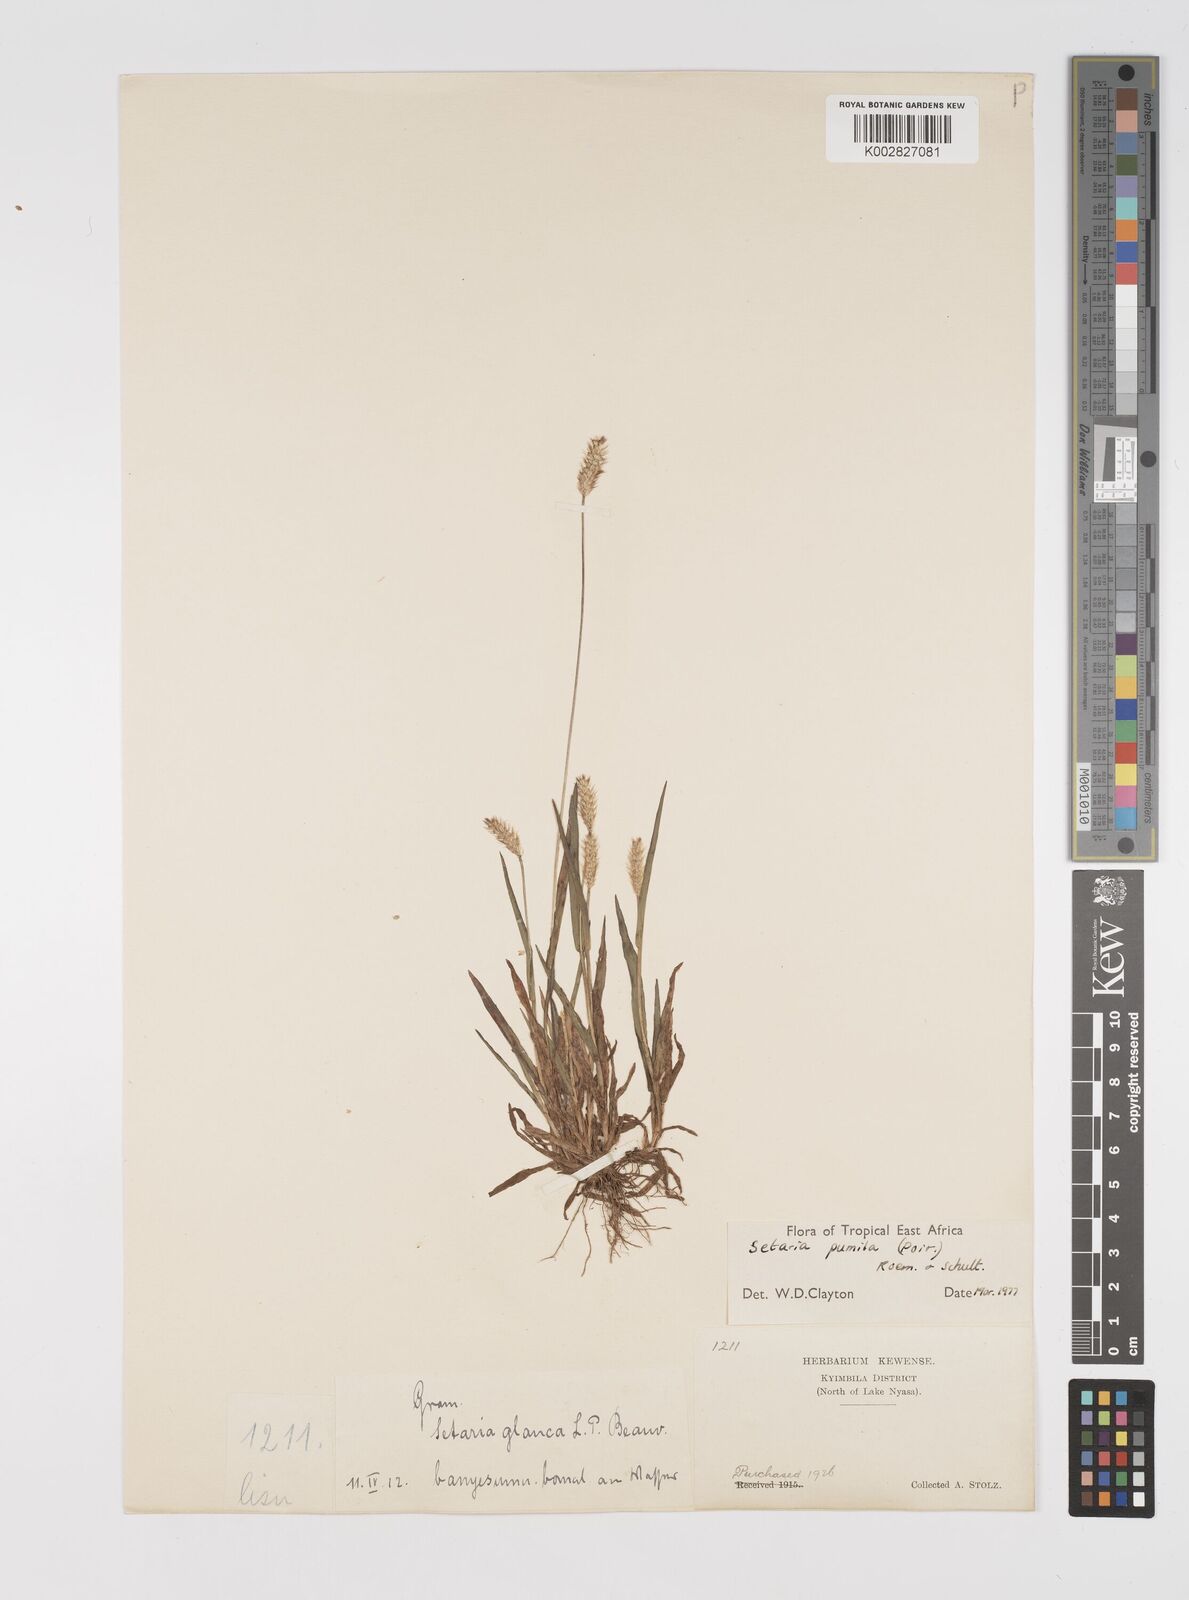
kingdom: Plantae
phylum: Tracheophyta
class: Liliopsida
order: Poales
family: Poaceae
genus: Setaria
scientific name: Setaria pumila
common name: Yellow bristle-grass
